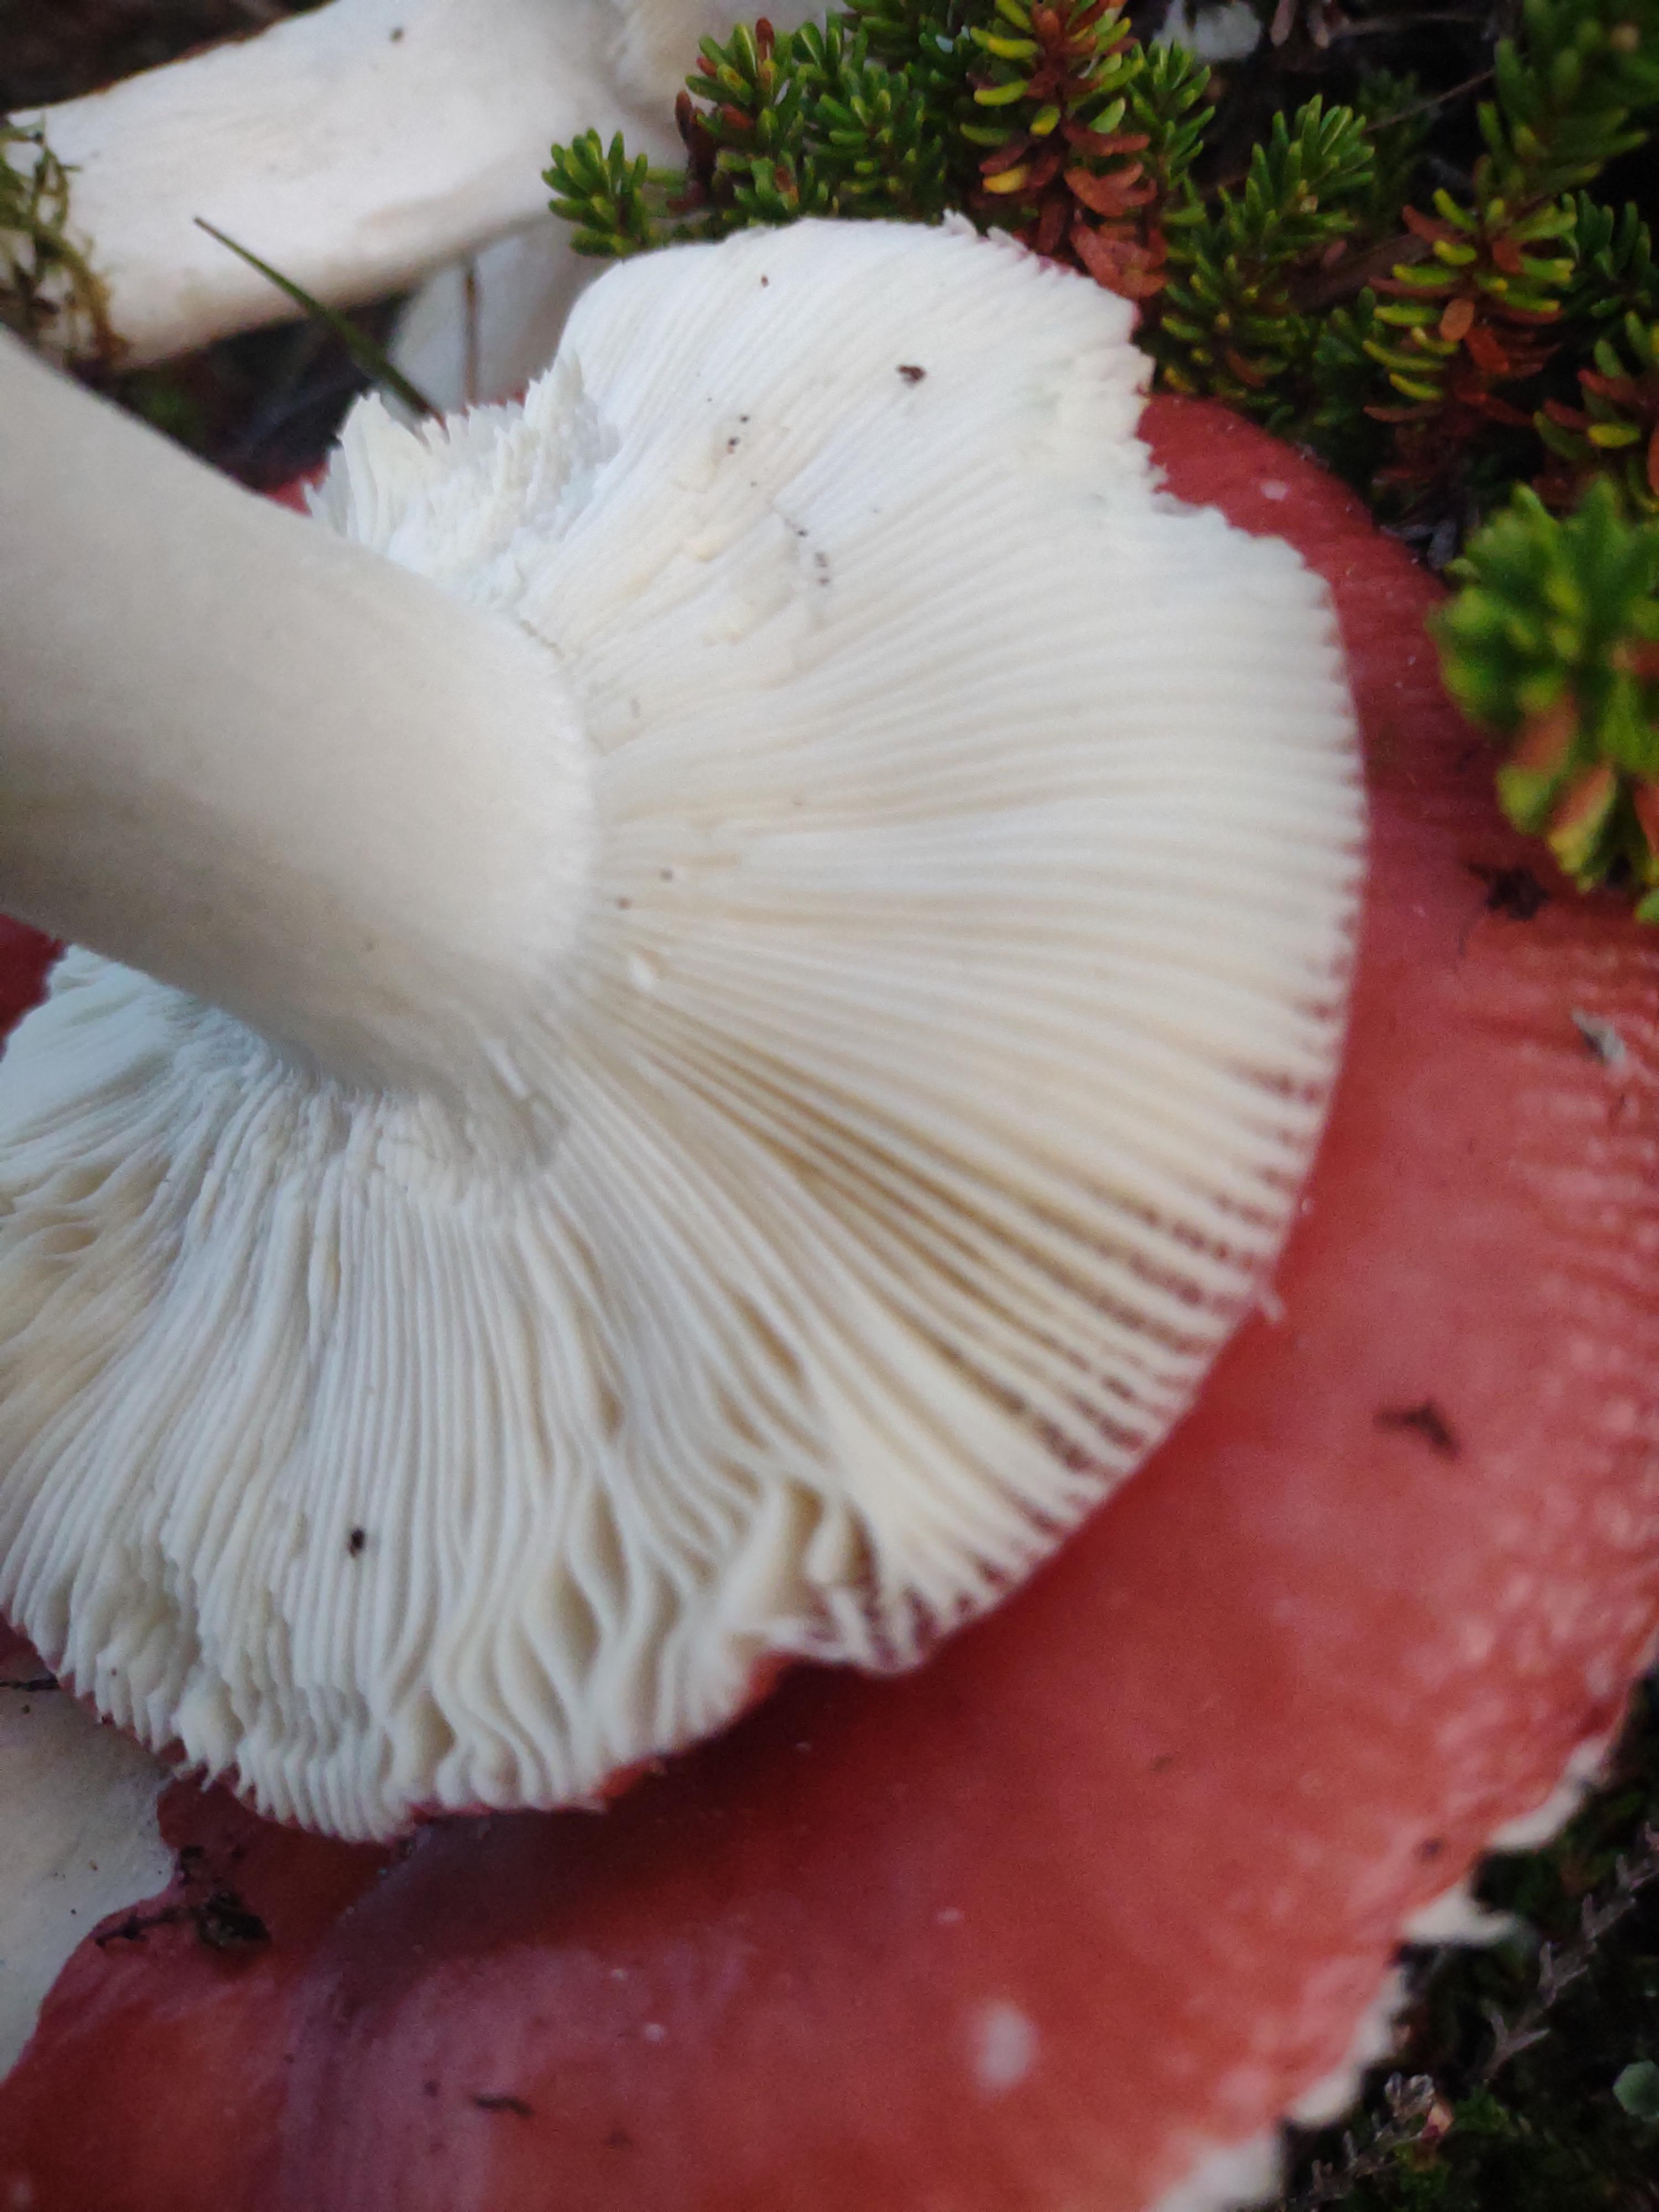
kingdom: Fungi
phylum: Basidiomycota
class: Agaricomycetes
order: Russulales
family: Russulaceae
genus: Russula
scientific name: Russula emetica
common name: stor gift-skørhat
